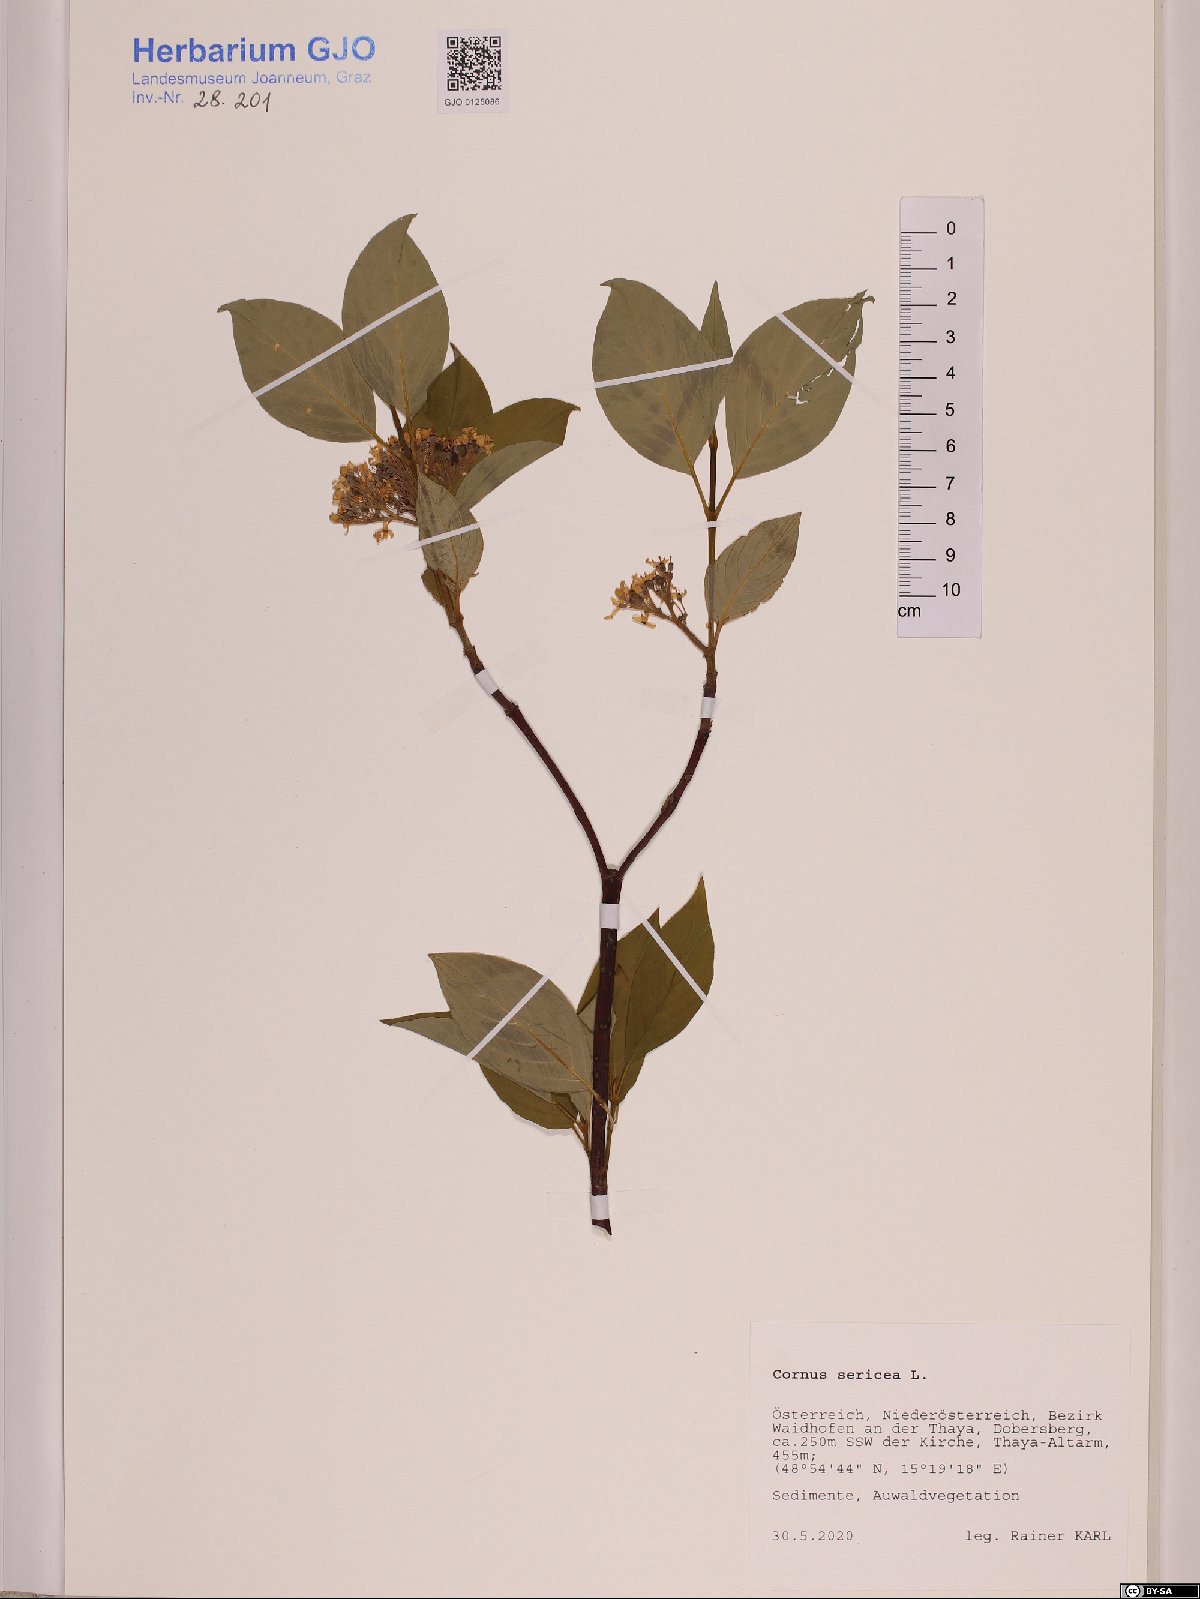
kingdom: Plantae
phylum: Tracheophyta
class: Magnoliopsida
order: Cornales
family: Cornaceae
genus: Cornus
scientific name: Cornus sericea
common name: Red-osier dogwood
